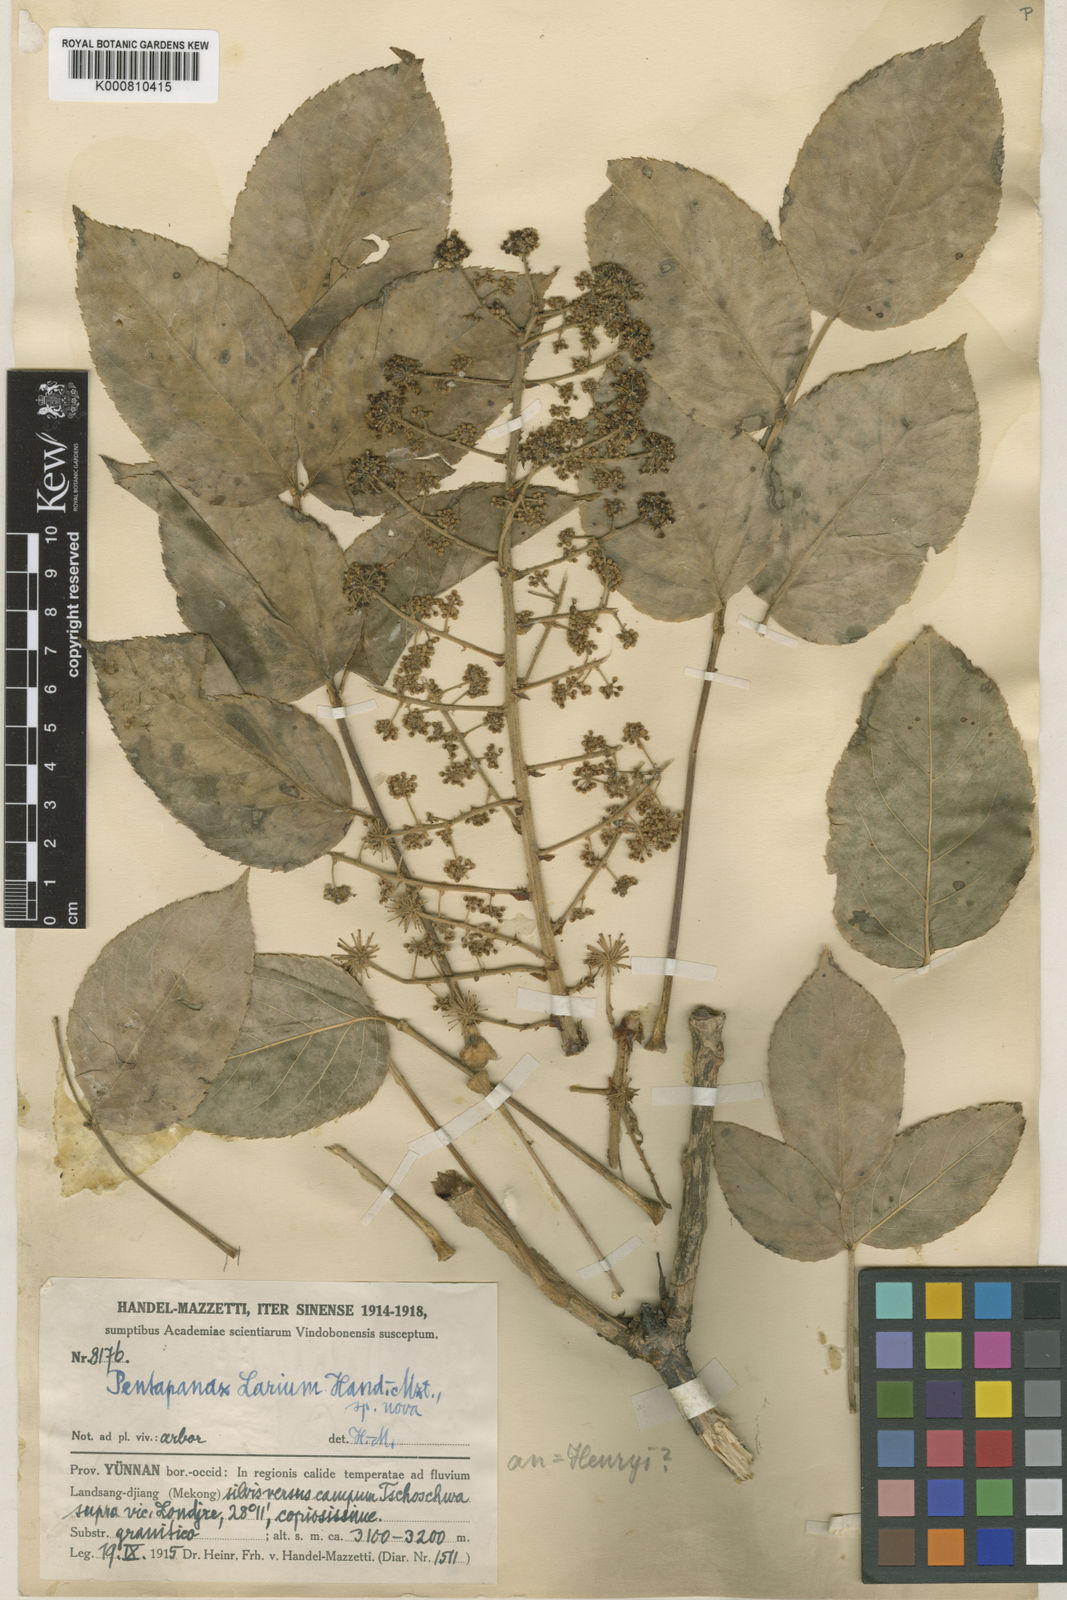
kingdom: Plantae
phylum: Tracheophyta
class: Magnoliopsida
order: Apiales
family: Araliaceae
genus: Aralia
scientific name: Aralia henryi
